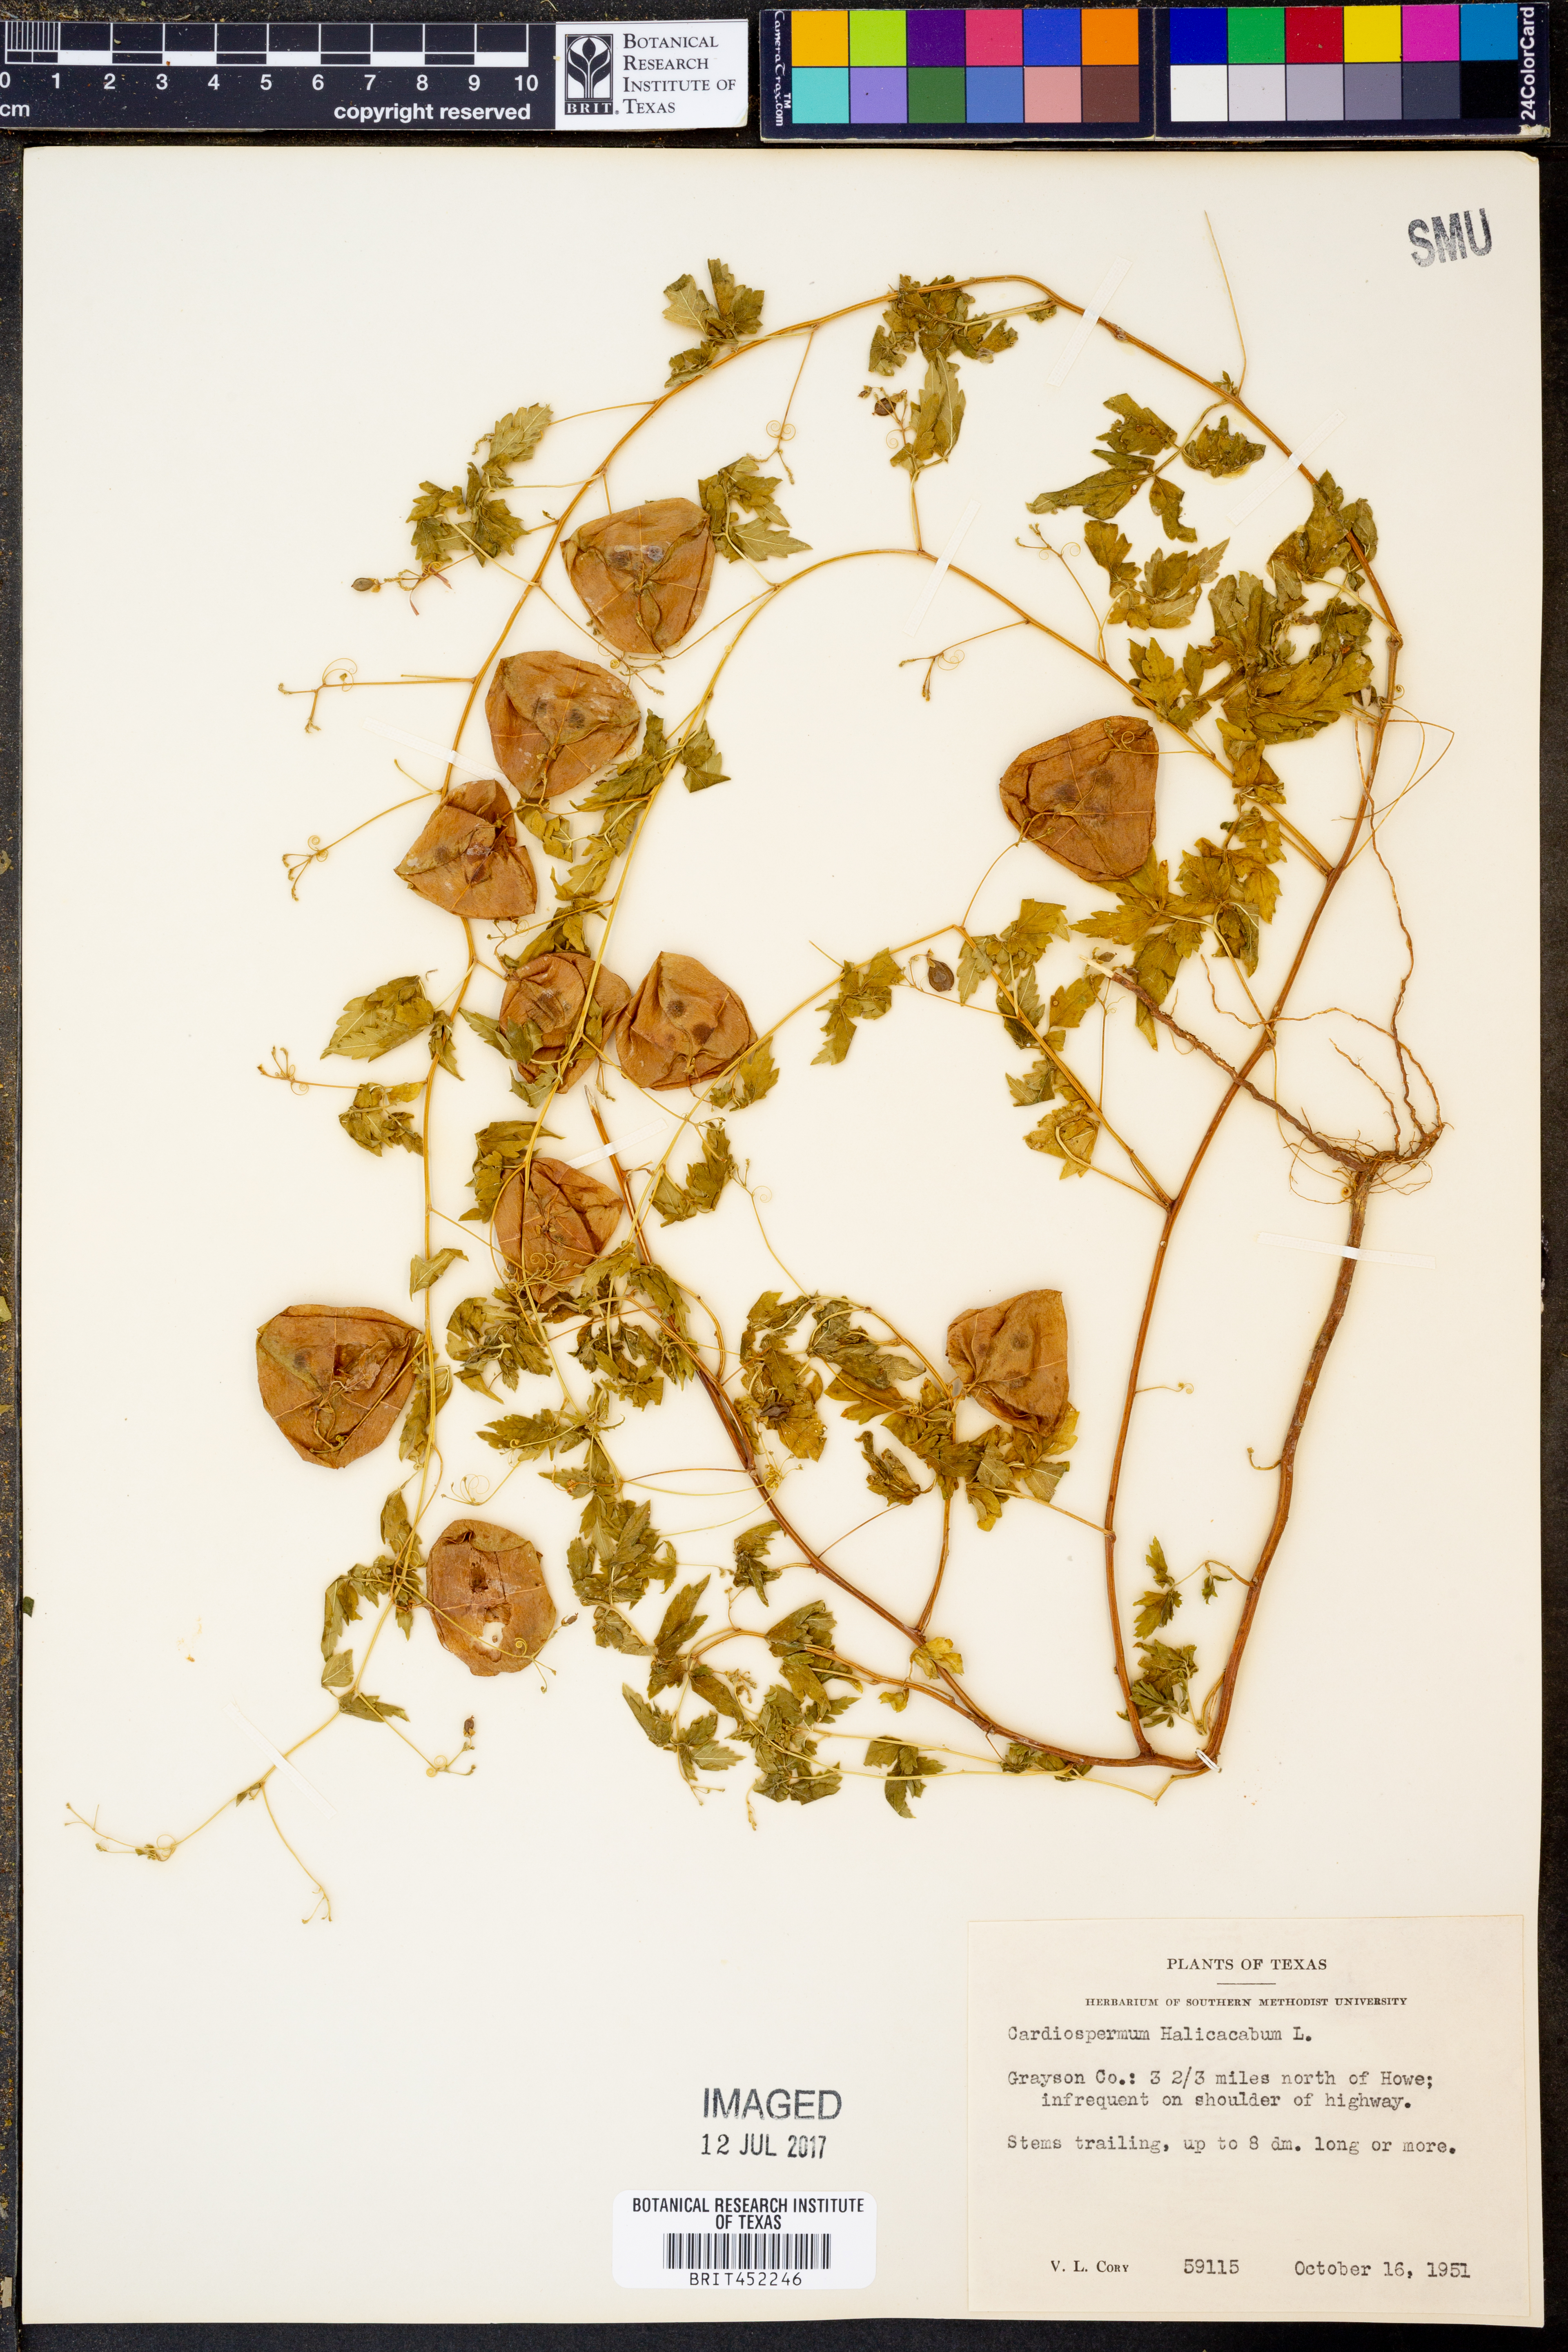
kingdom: Plantae
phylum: Tracheophyta
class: Magnoliopsida
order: Sapindales
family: Sapindaceae
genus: Cardiospermum
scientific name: Cardiospermum halicacabum
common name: Balloon vine
